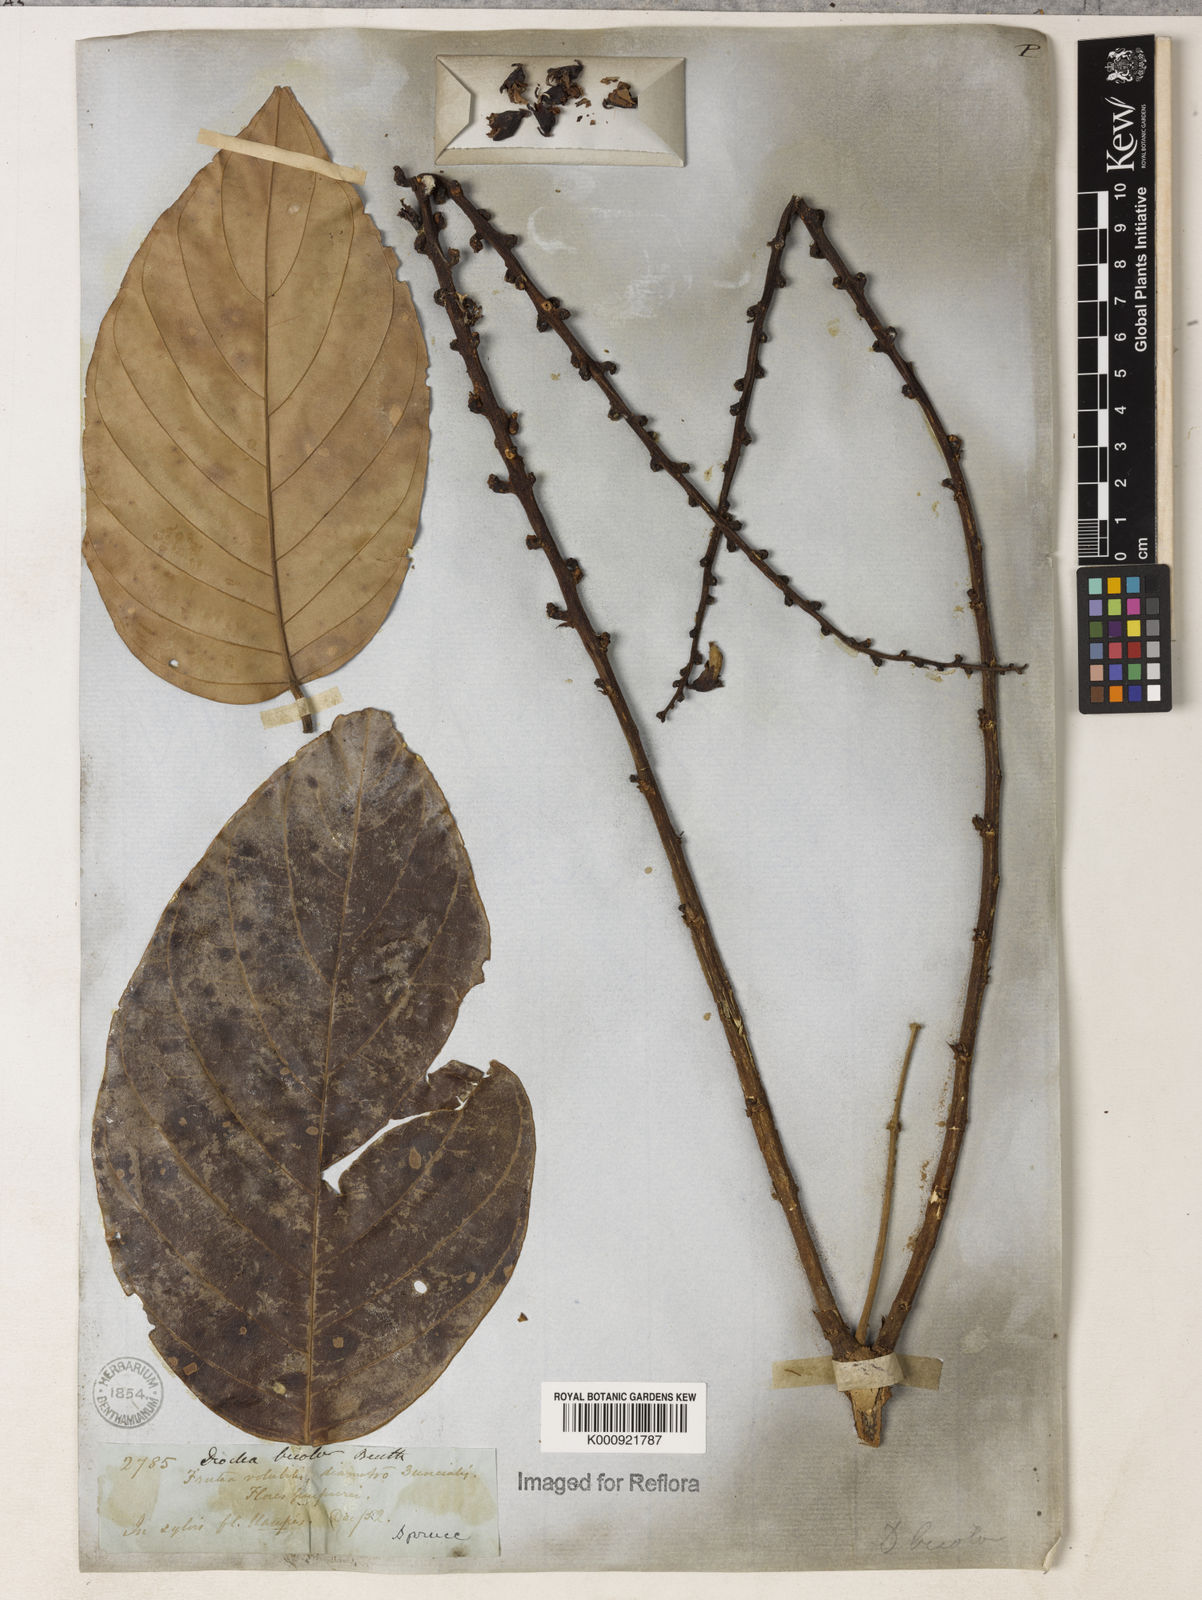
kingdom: Plantae
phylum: Tracheophyta
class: Magnoliopsida
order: Fabales
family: Fabaceae
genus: Macropsychanthus
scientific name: Macropsychanthus bicolor
